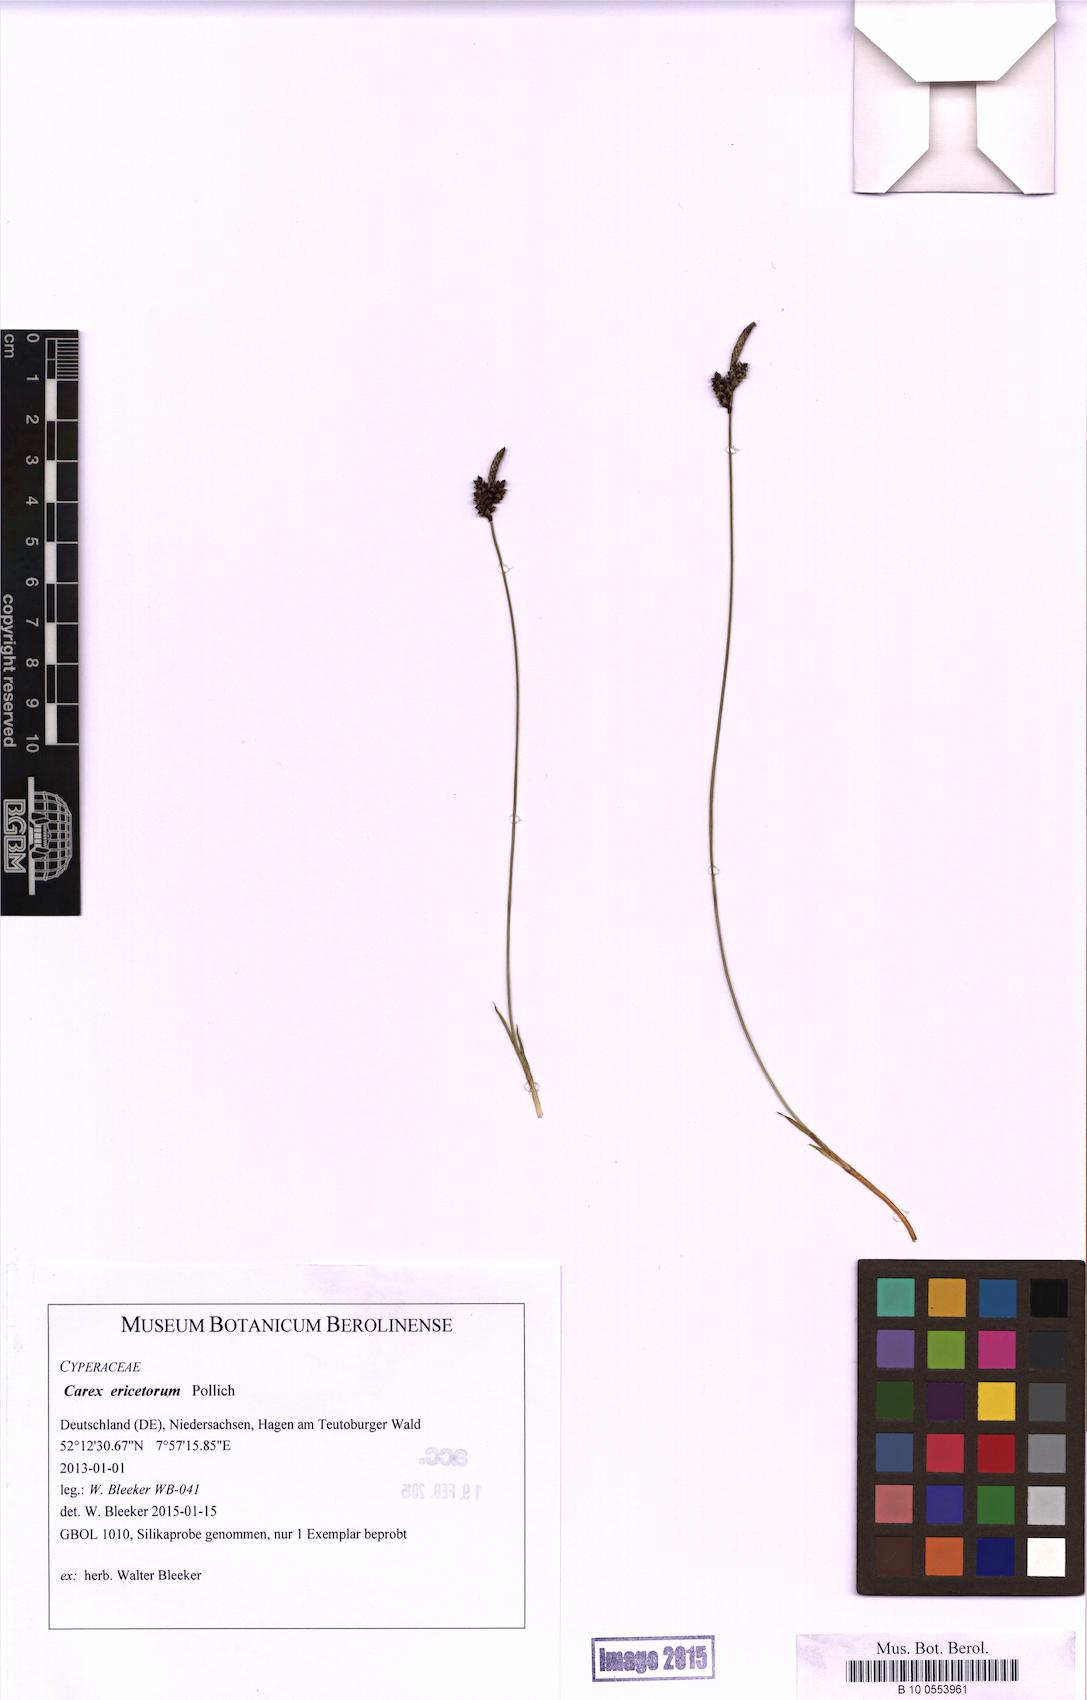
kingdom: Plantae
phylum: Tracheophyta
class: Liliopsida
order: Poales
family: Cyperaceae
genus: Carex
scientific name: Carex ericetorum
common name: Rare spring-sedge
